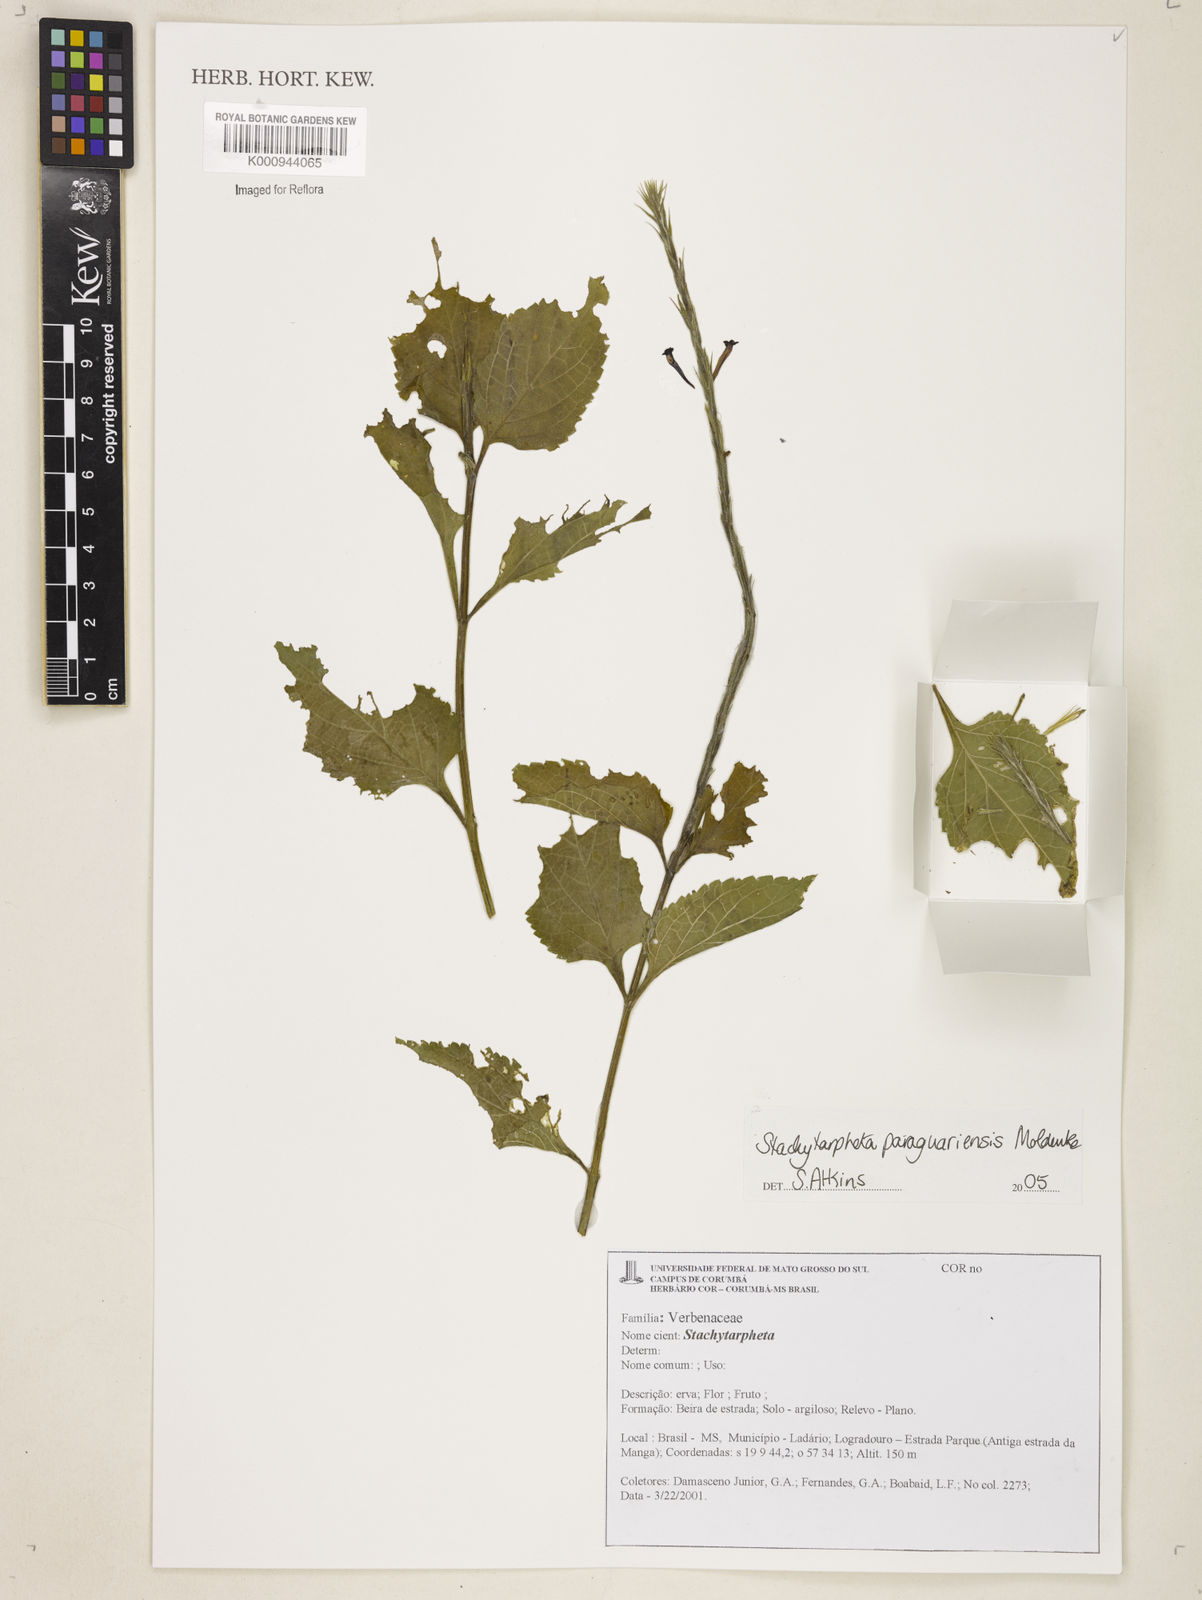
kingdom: Plantae
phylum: Tracheophyta
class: Magnoliopsida
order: Lamiales
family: Verbenaceae
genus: Stachytarpheta
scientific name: Stachytarpheta
